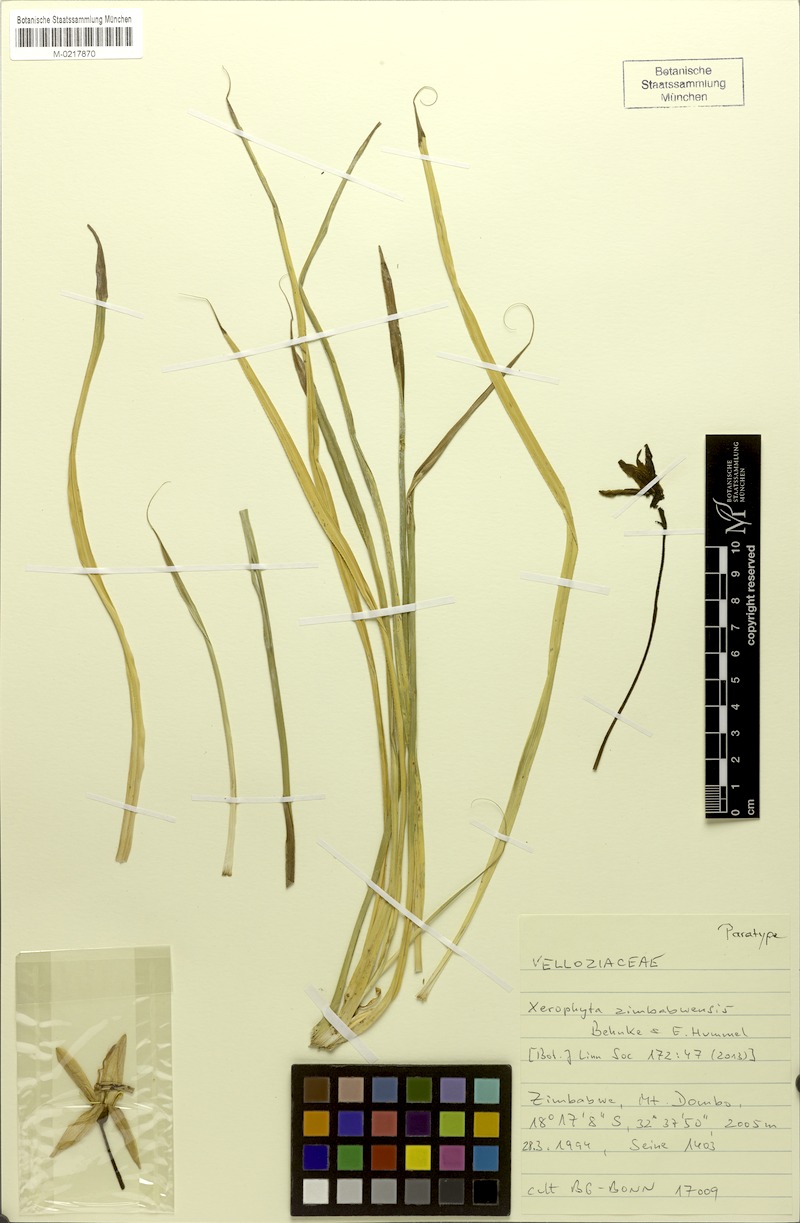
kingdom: Plantae
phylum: Tracheophyta
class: Liliopsida
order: Pandanales
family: Velloziaceae
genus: Xerophyta
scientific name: Xerophyta zimbabwensis
